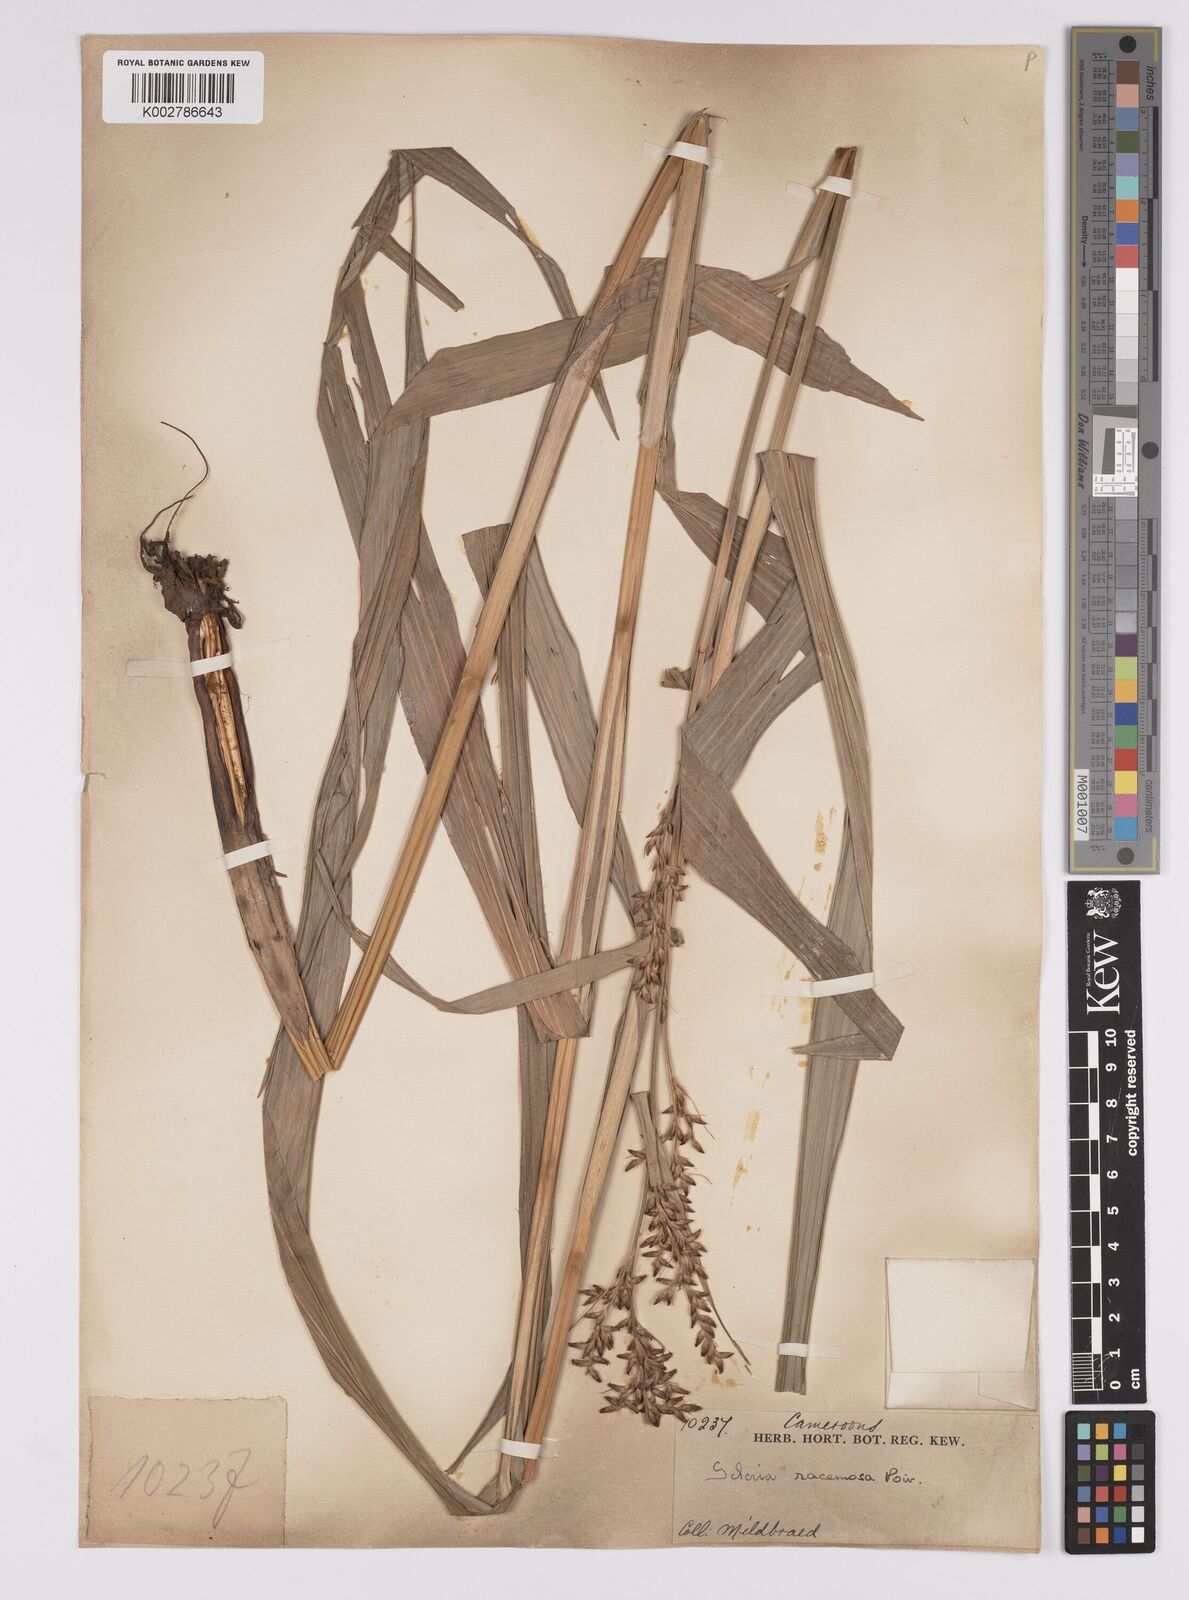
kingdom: Plantae
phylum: Tracheophyta
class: Liliopsida
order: Poales
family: Cyperaceae
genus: Scleria
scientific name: Scleria racemosa
